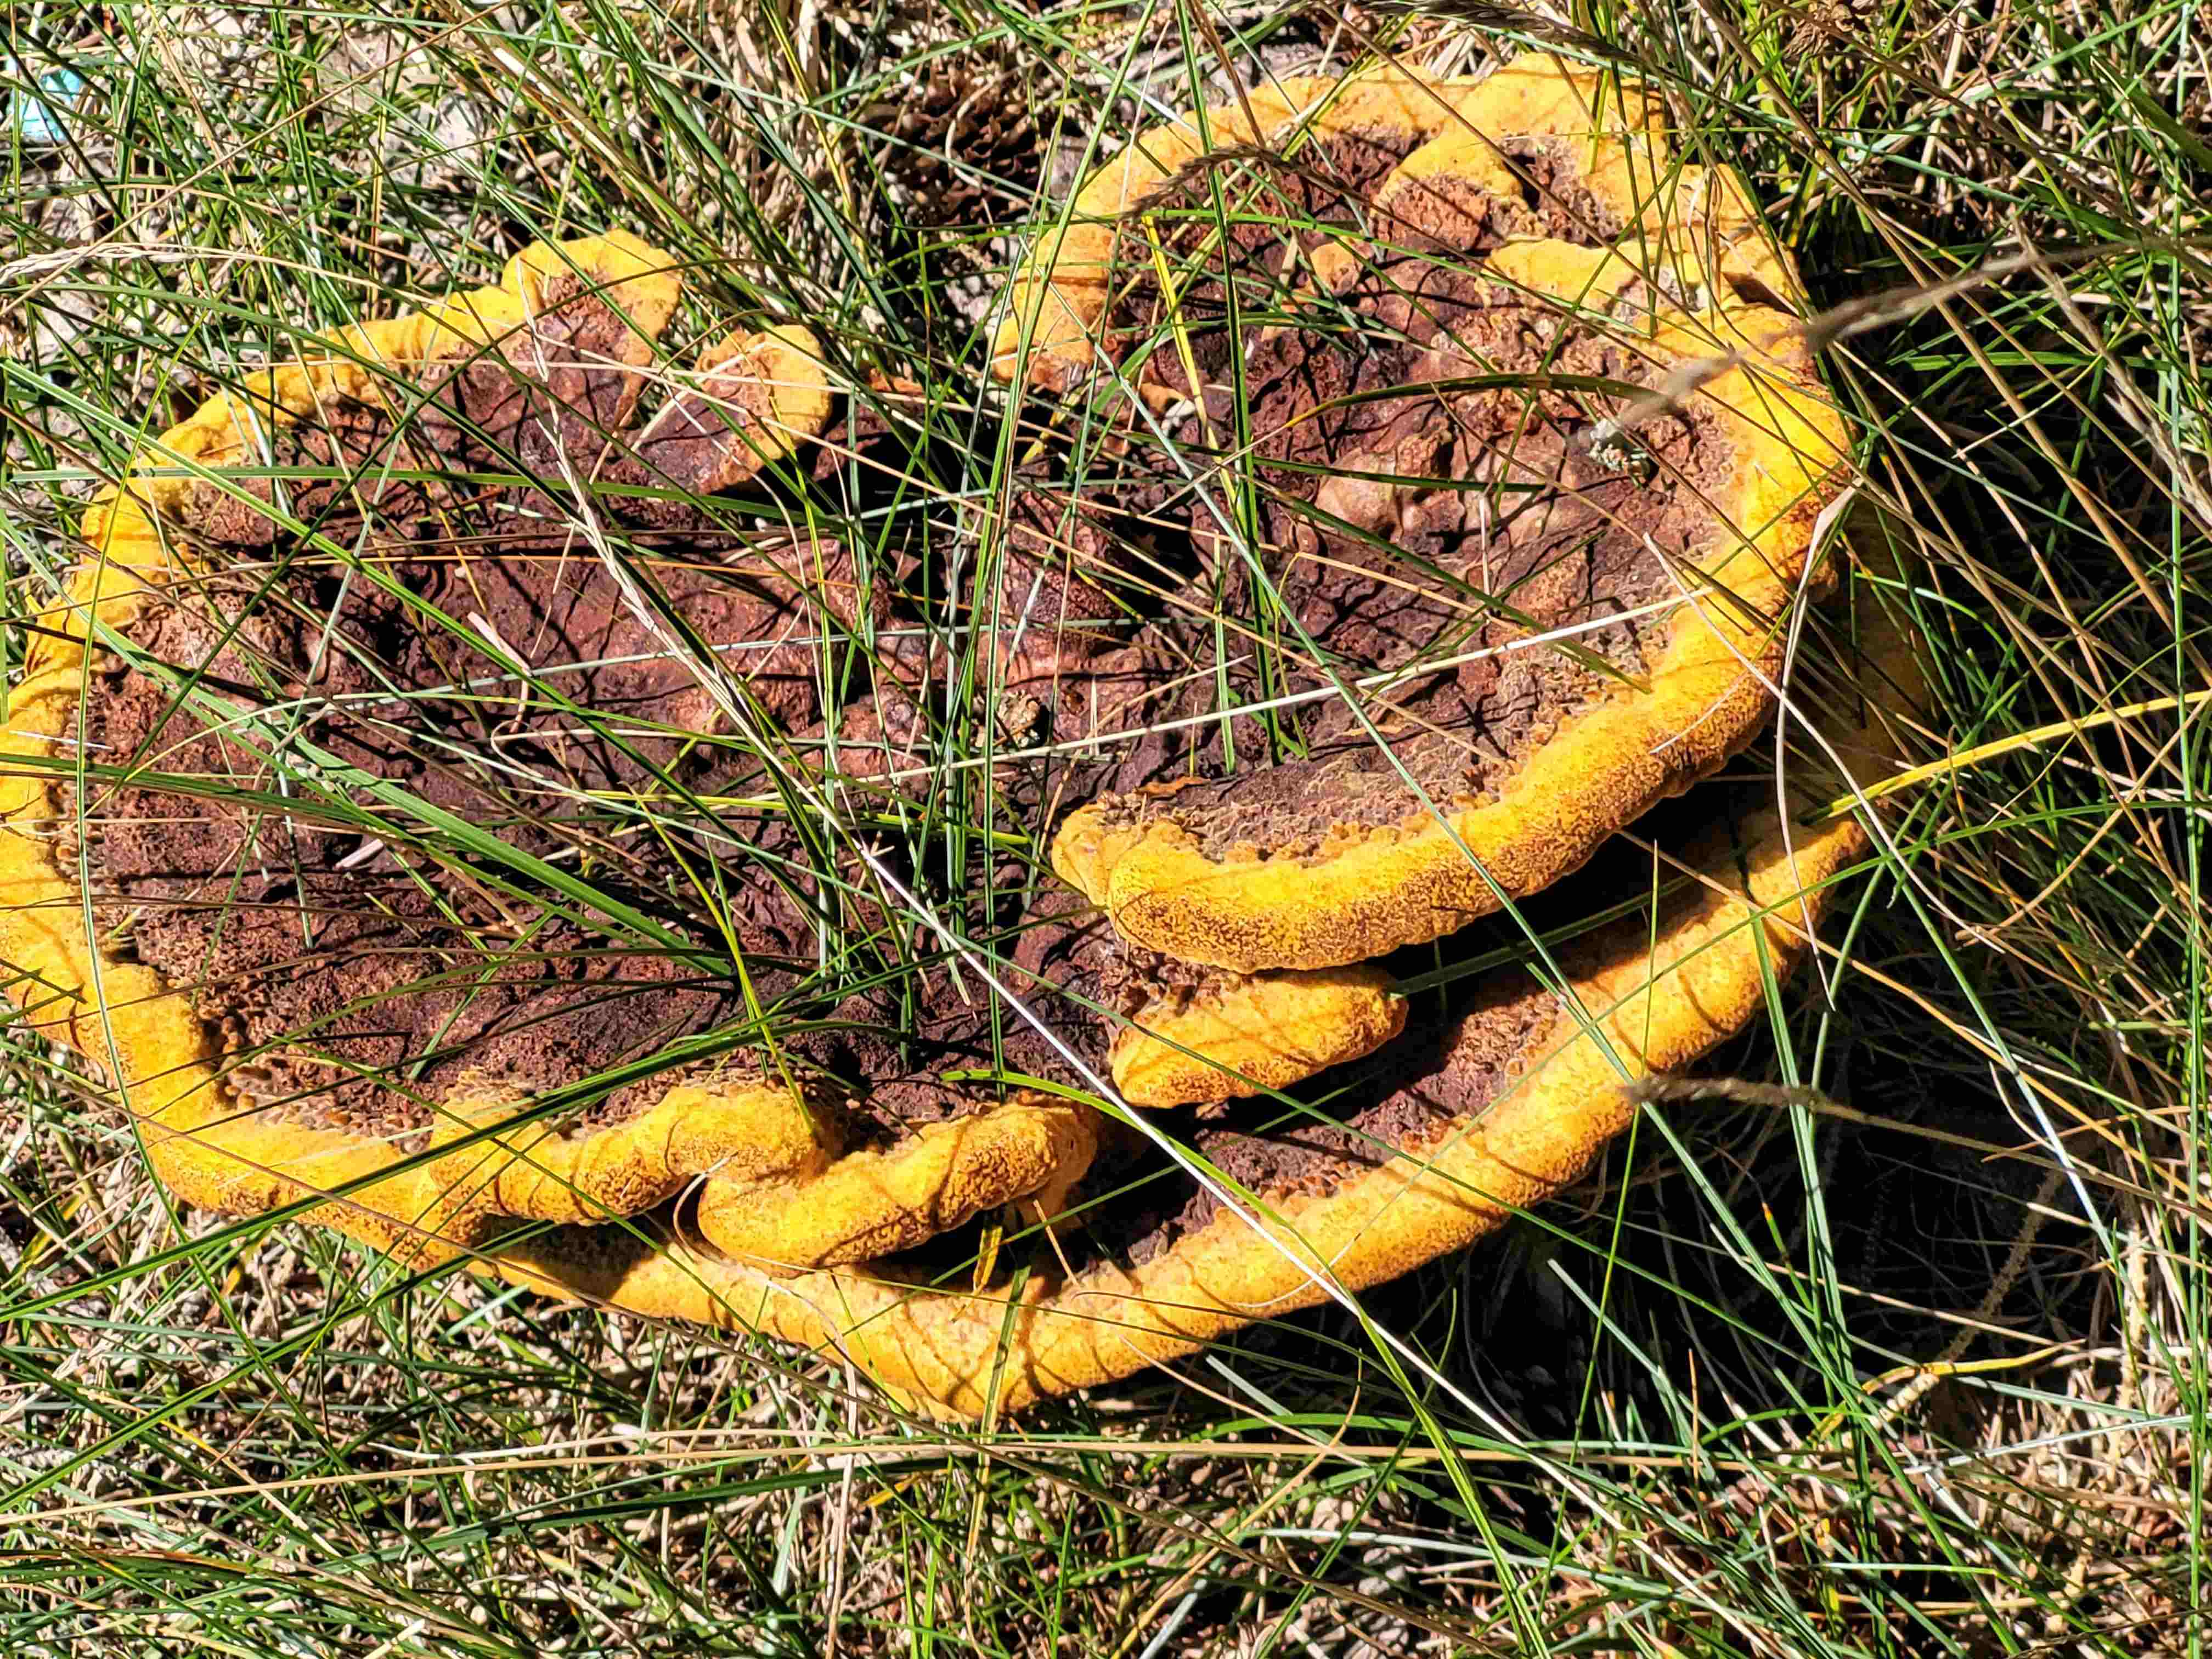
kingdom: Fungi
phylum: Basidiomycota
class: Agaricomycetes
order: Polyporales
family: Laetiporaceae
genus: Phaeolus
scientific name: Phaeolus schweinitzii
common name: brunporesvamp
